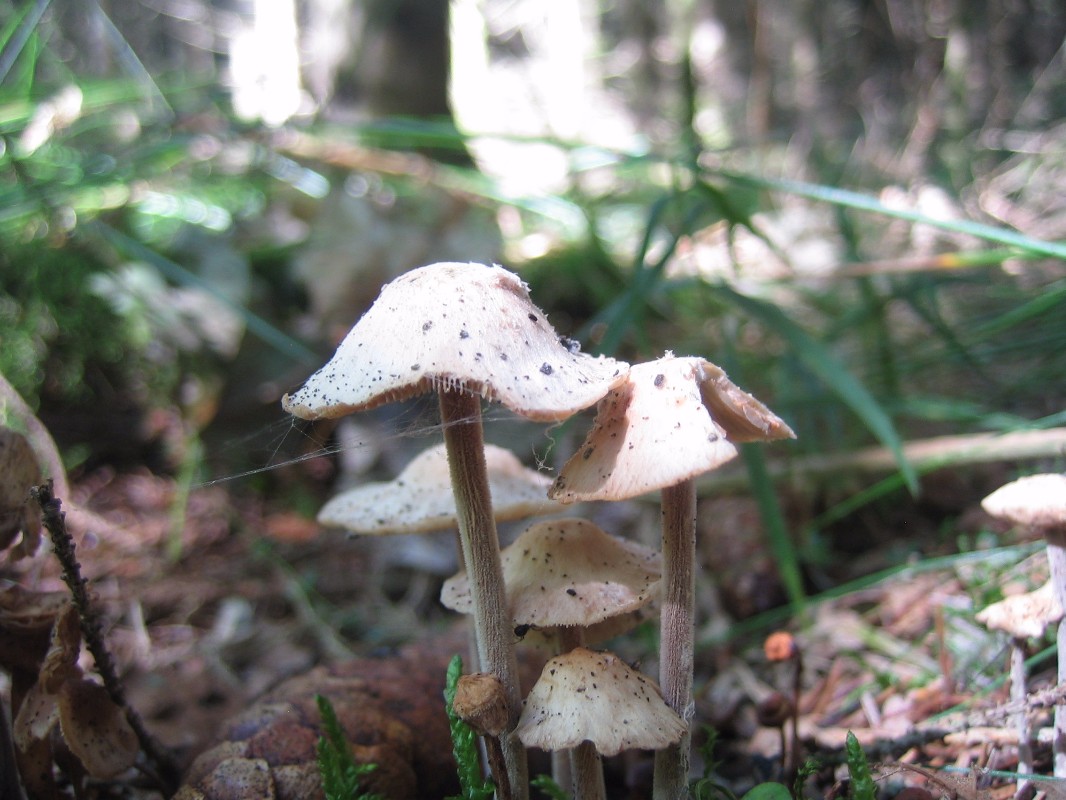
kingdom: Fungi
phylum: Basidiomycota
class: Agaricomycetes
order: Agaricales
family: Omphalotaceae
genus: Collybiopsis
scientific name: Collybiopsis confluens
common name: knippe-fladhat
